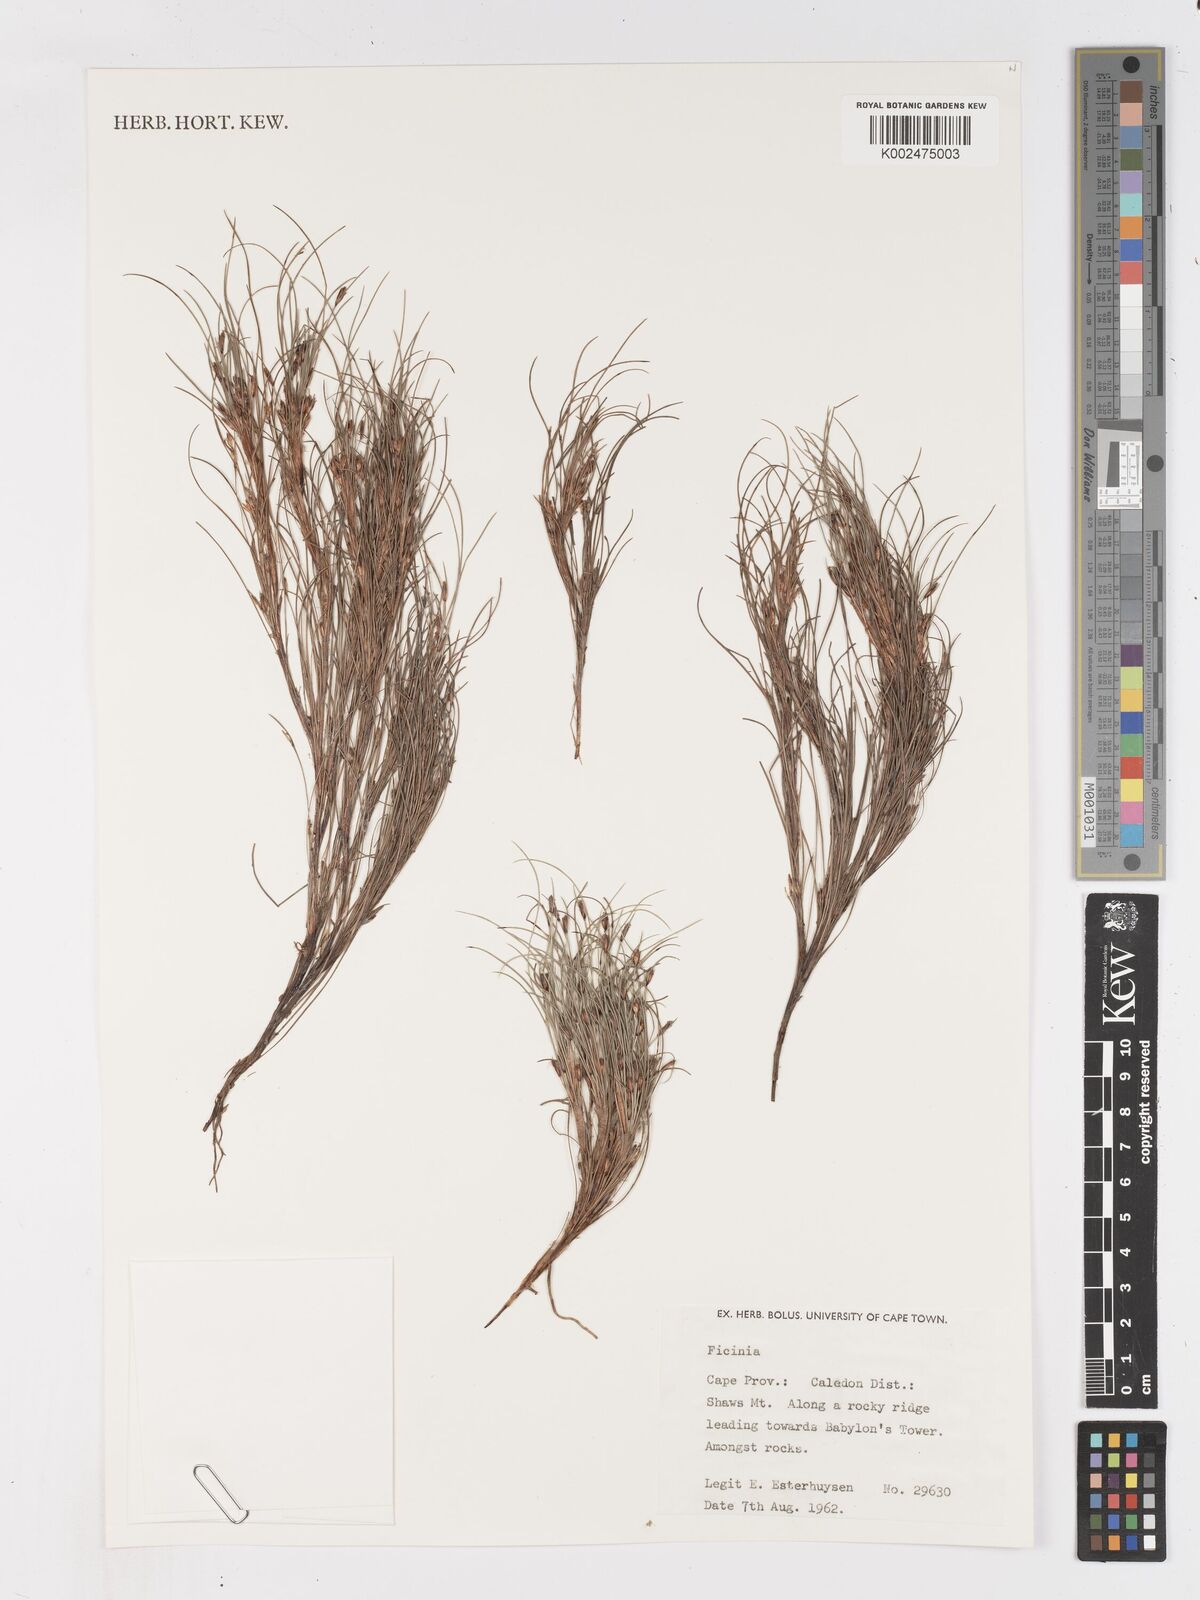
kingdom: Plantae
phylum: Tracheophyta
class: Liliopsida
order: Poales
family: Cyperaceae
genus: Ficinia
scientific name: Ficinia zeyheri
